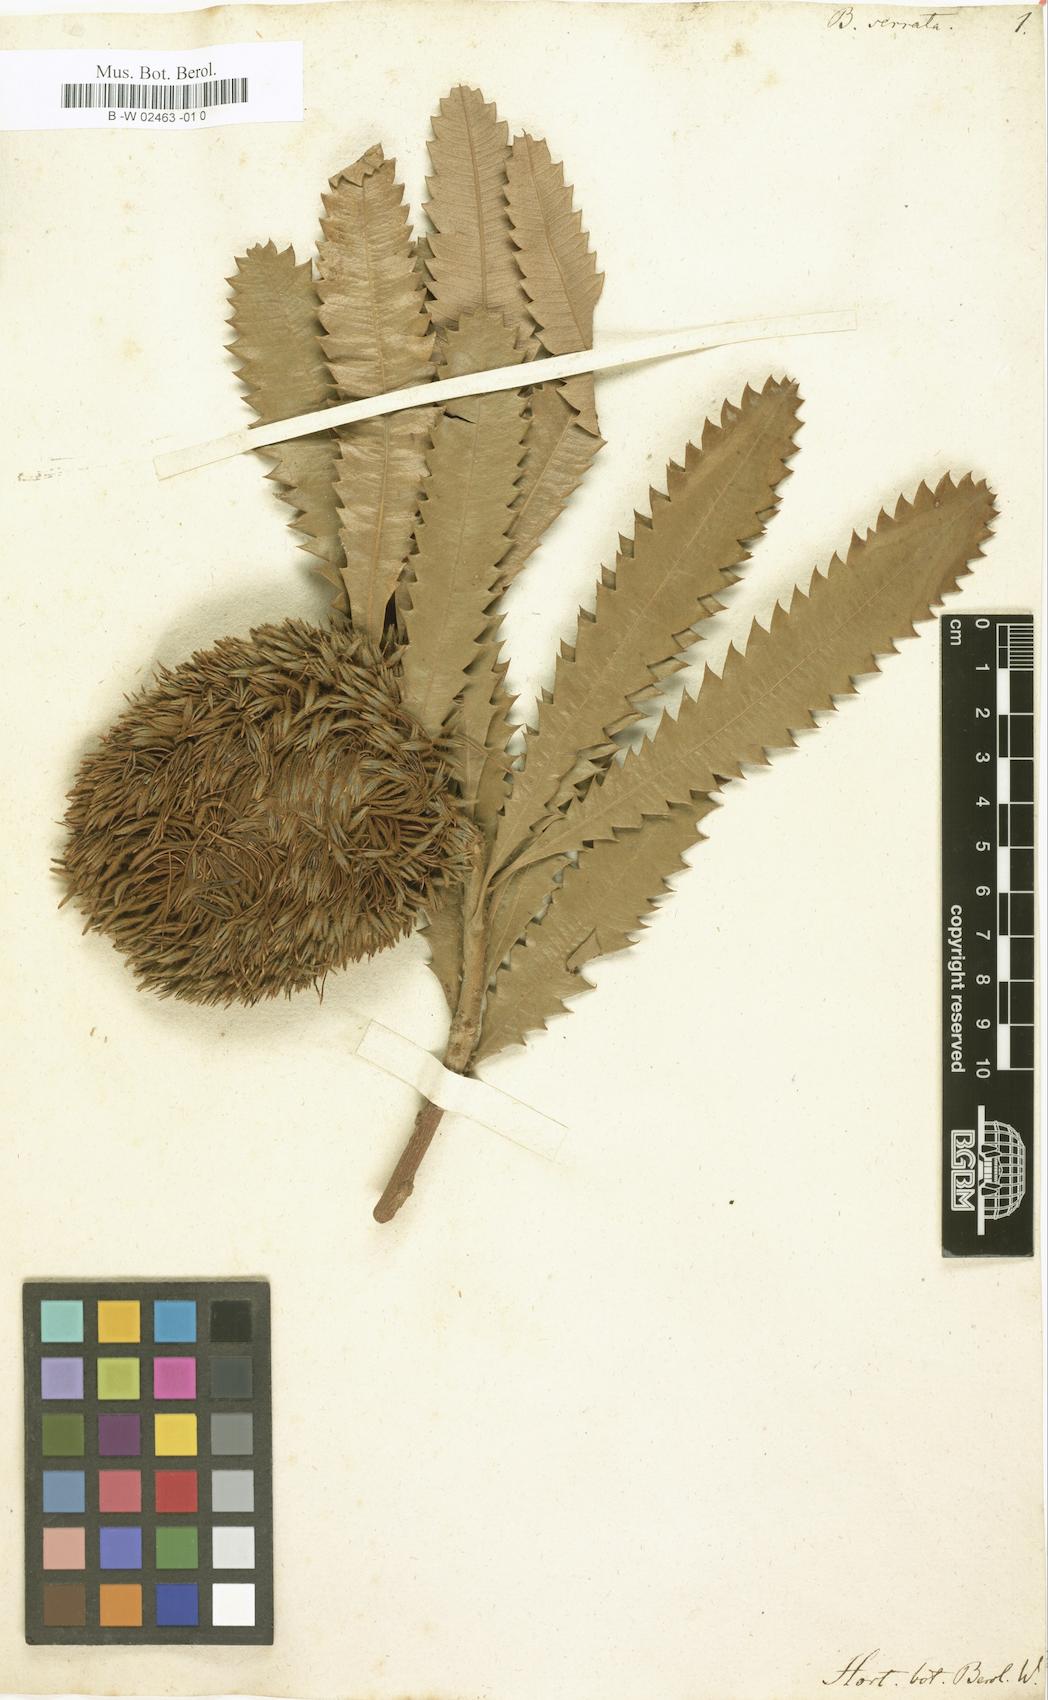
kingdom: Plantae
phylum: Tracheophyta
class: Magnoliopsida
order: Proteales
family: Proteaceae
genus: Banksia
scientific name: Banksia serrata
